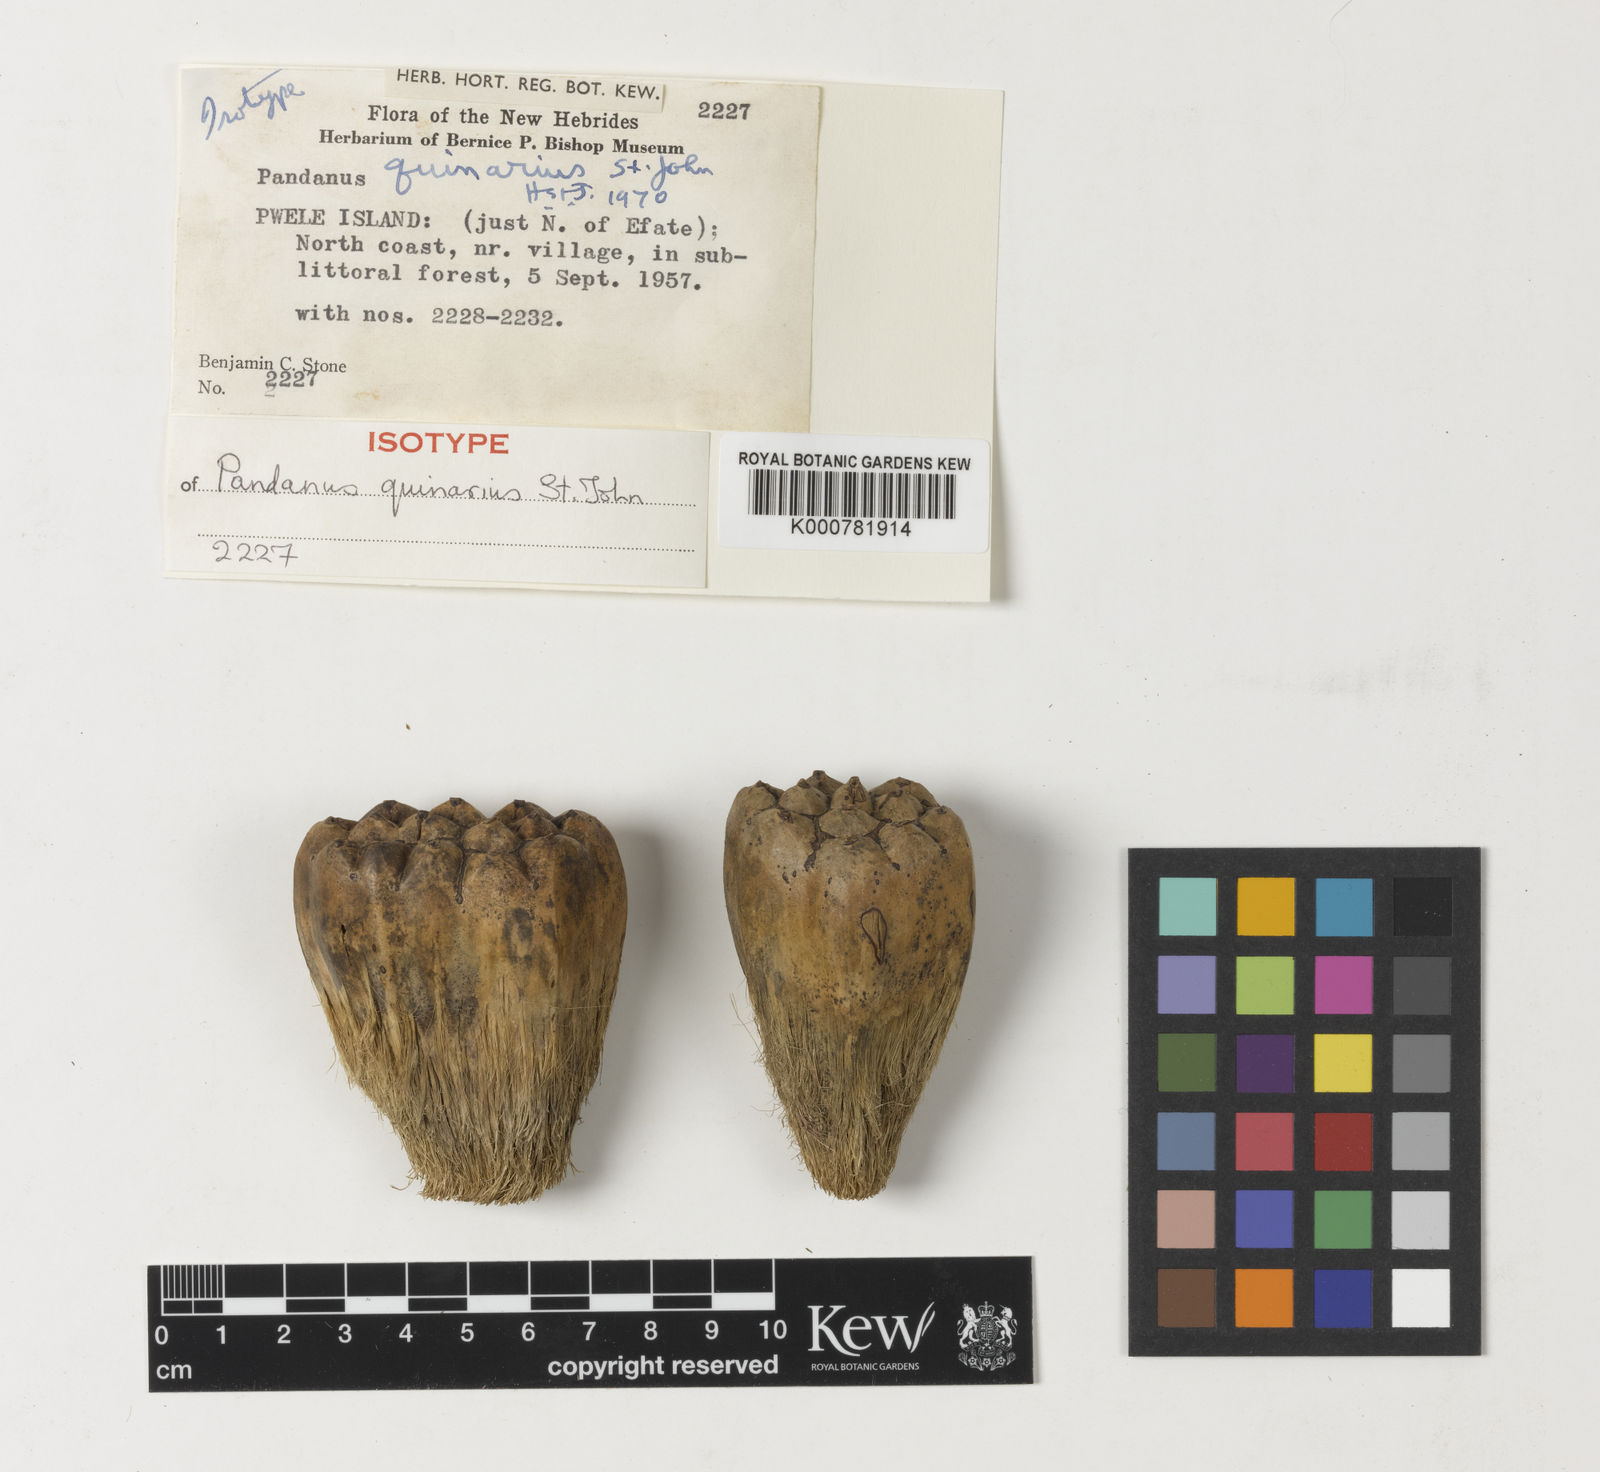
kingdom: Plantae
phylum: Tracheophyta
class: Liliopsida
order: Pandanales
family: Pandanaceae
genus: Pandanus
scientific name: Pandanus quinarius
